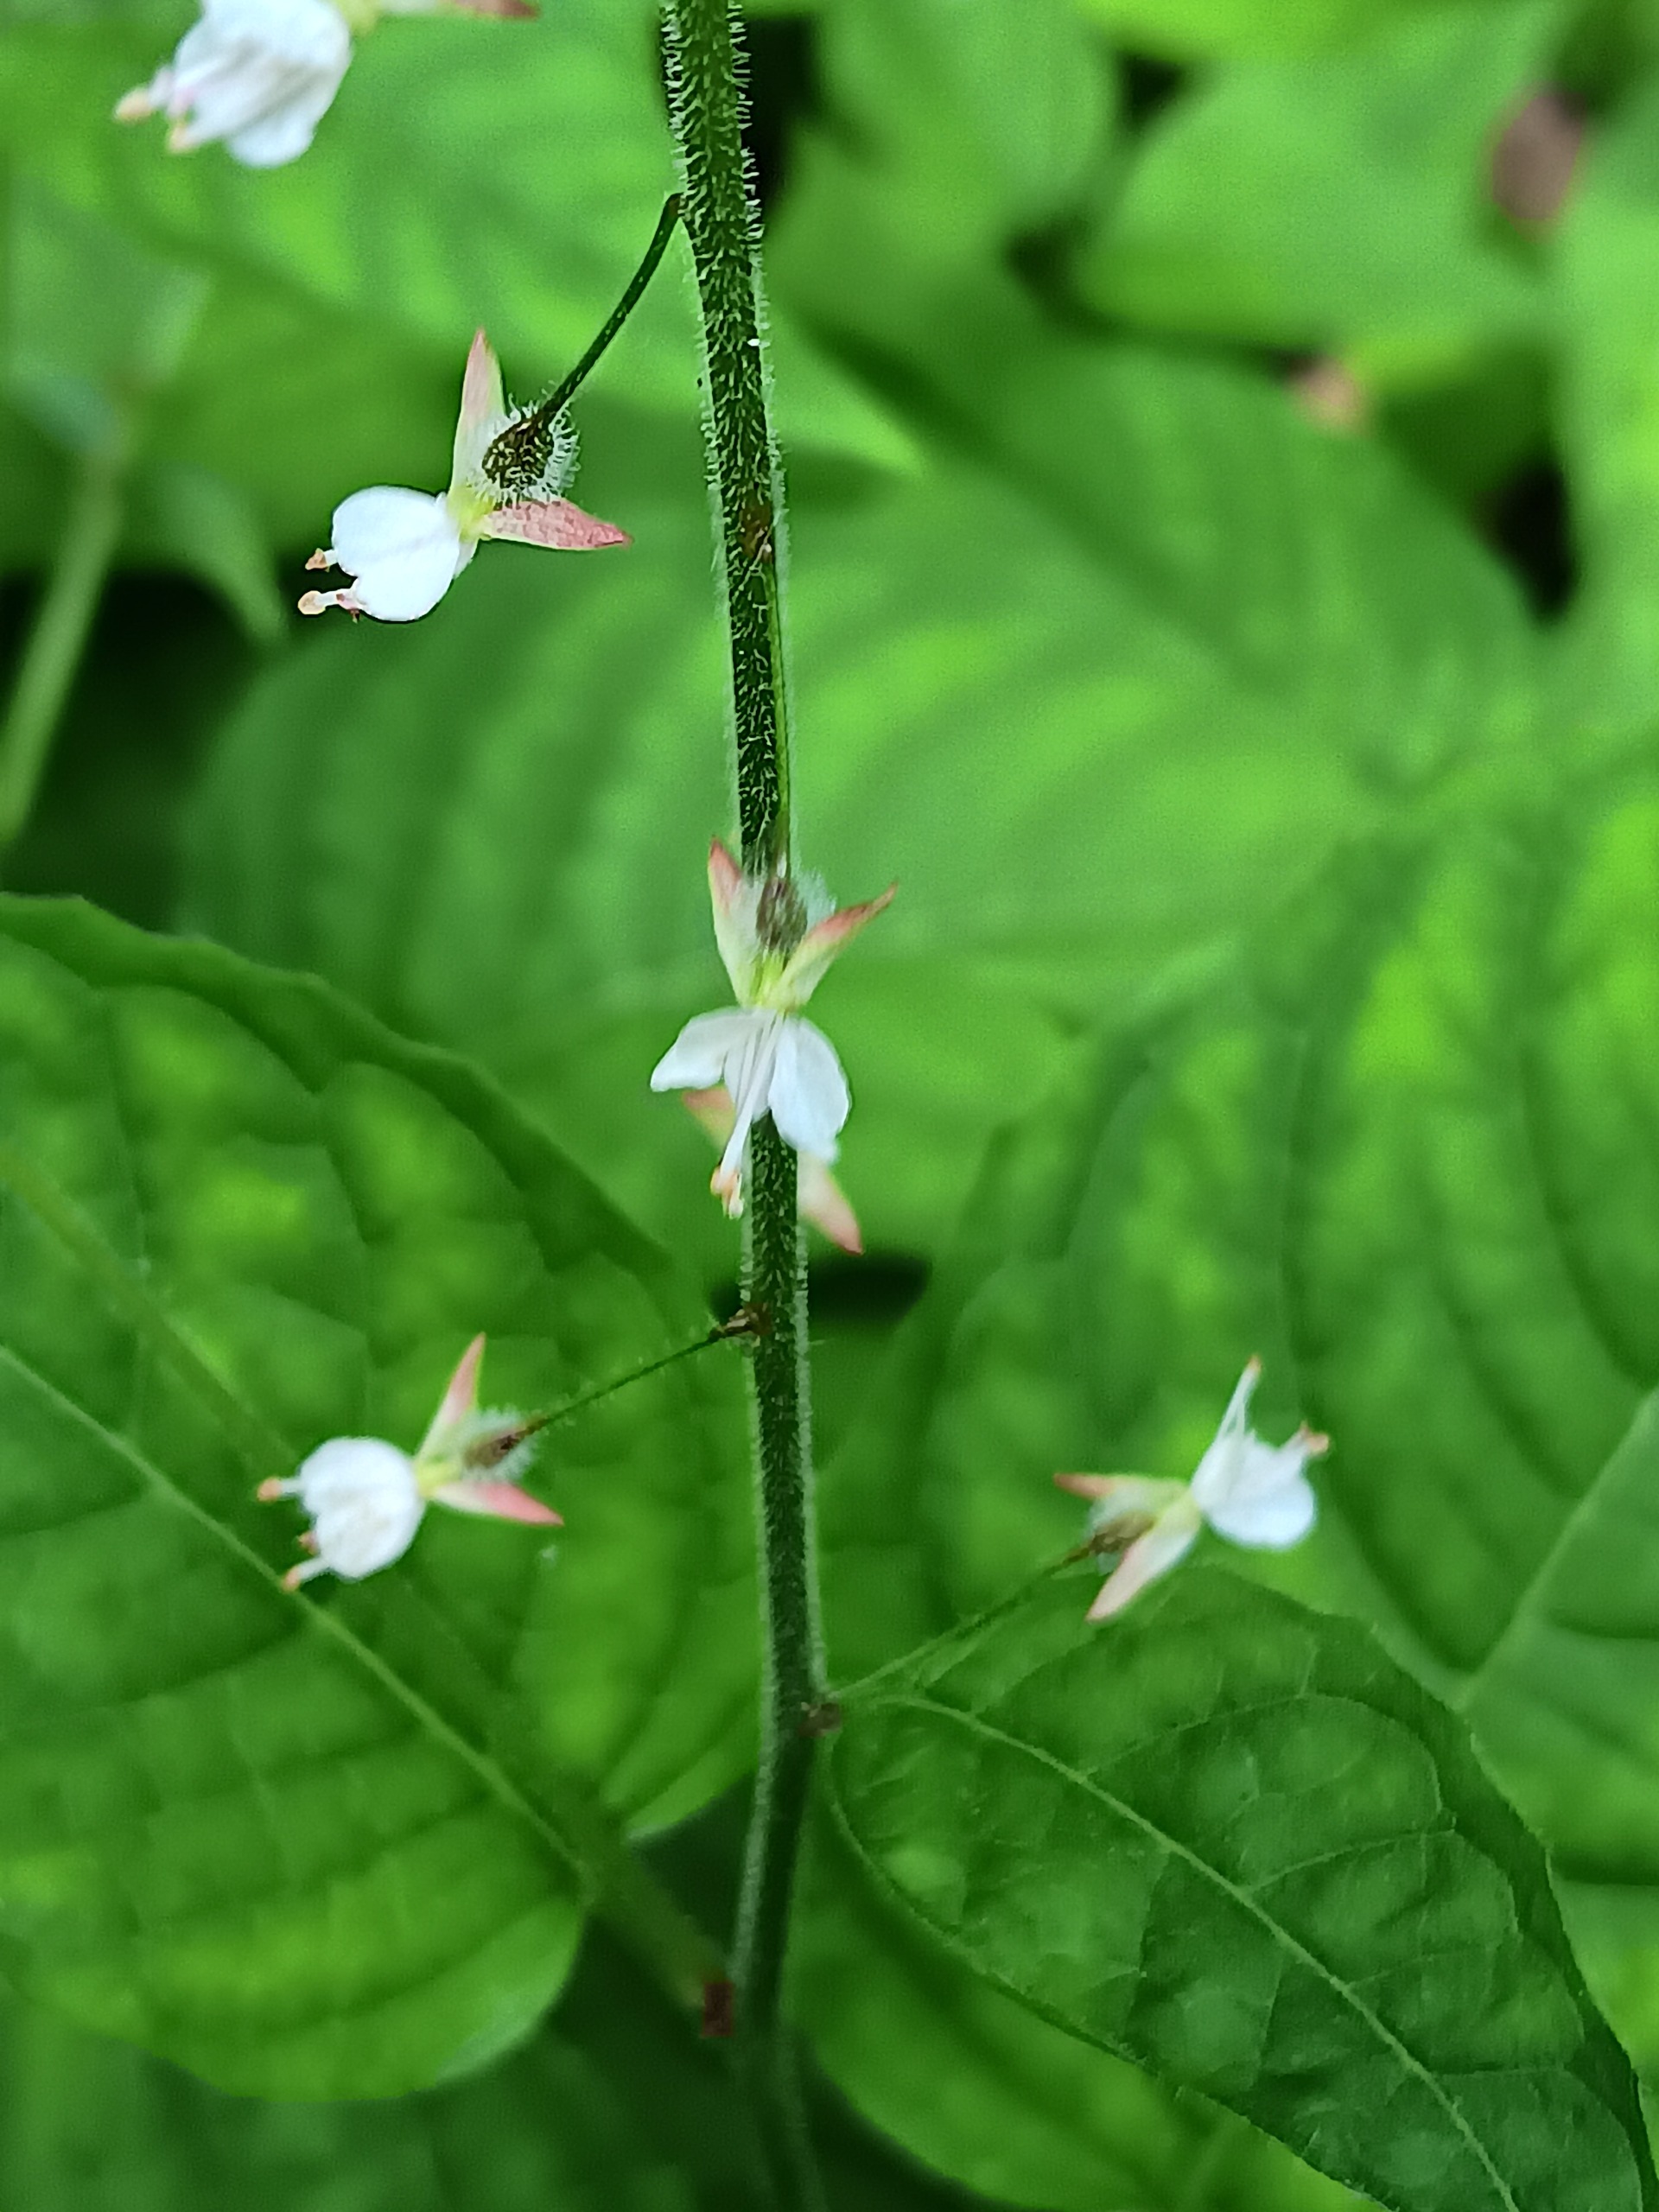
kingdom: Plantae
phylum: Tracheophyta
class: Magnoliopsida
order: Myrtales
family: Onagraceae
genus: Circaea
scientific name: Circaea lutetiana
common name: Dunet steffensurt
